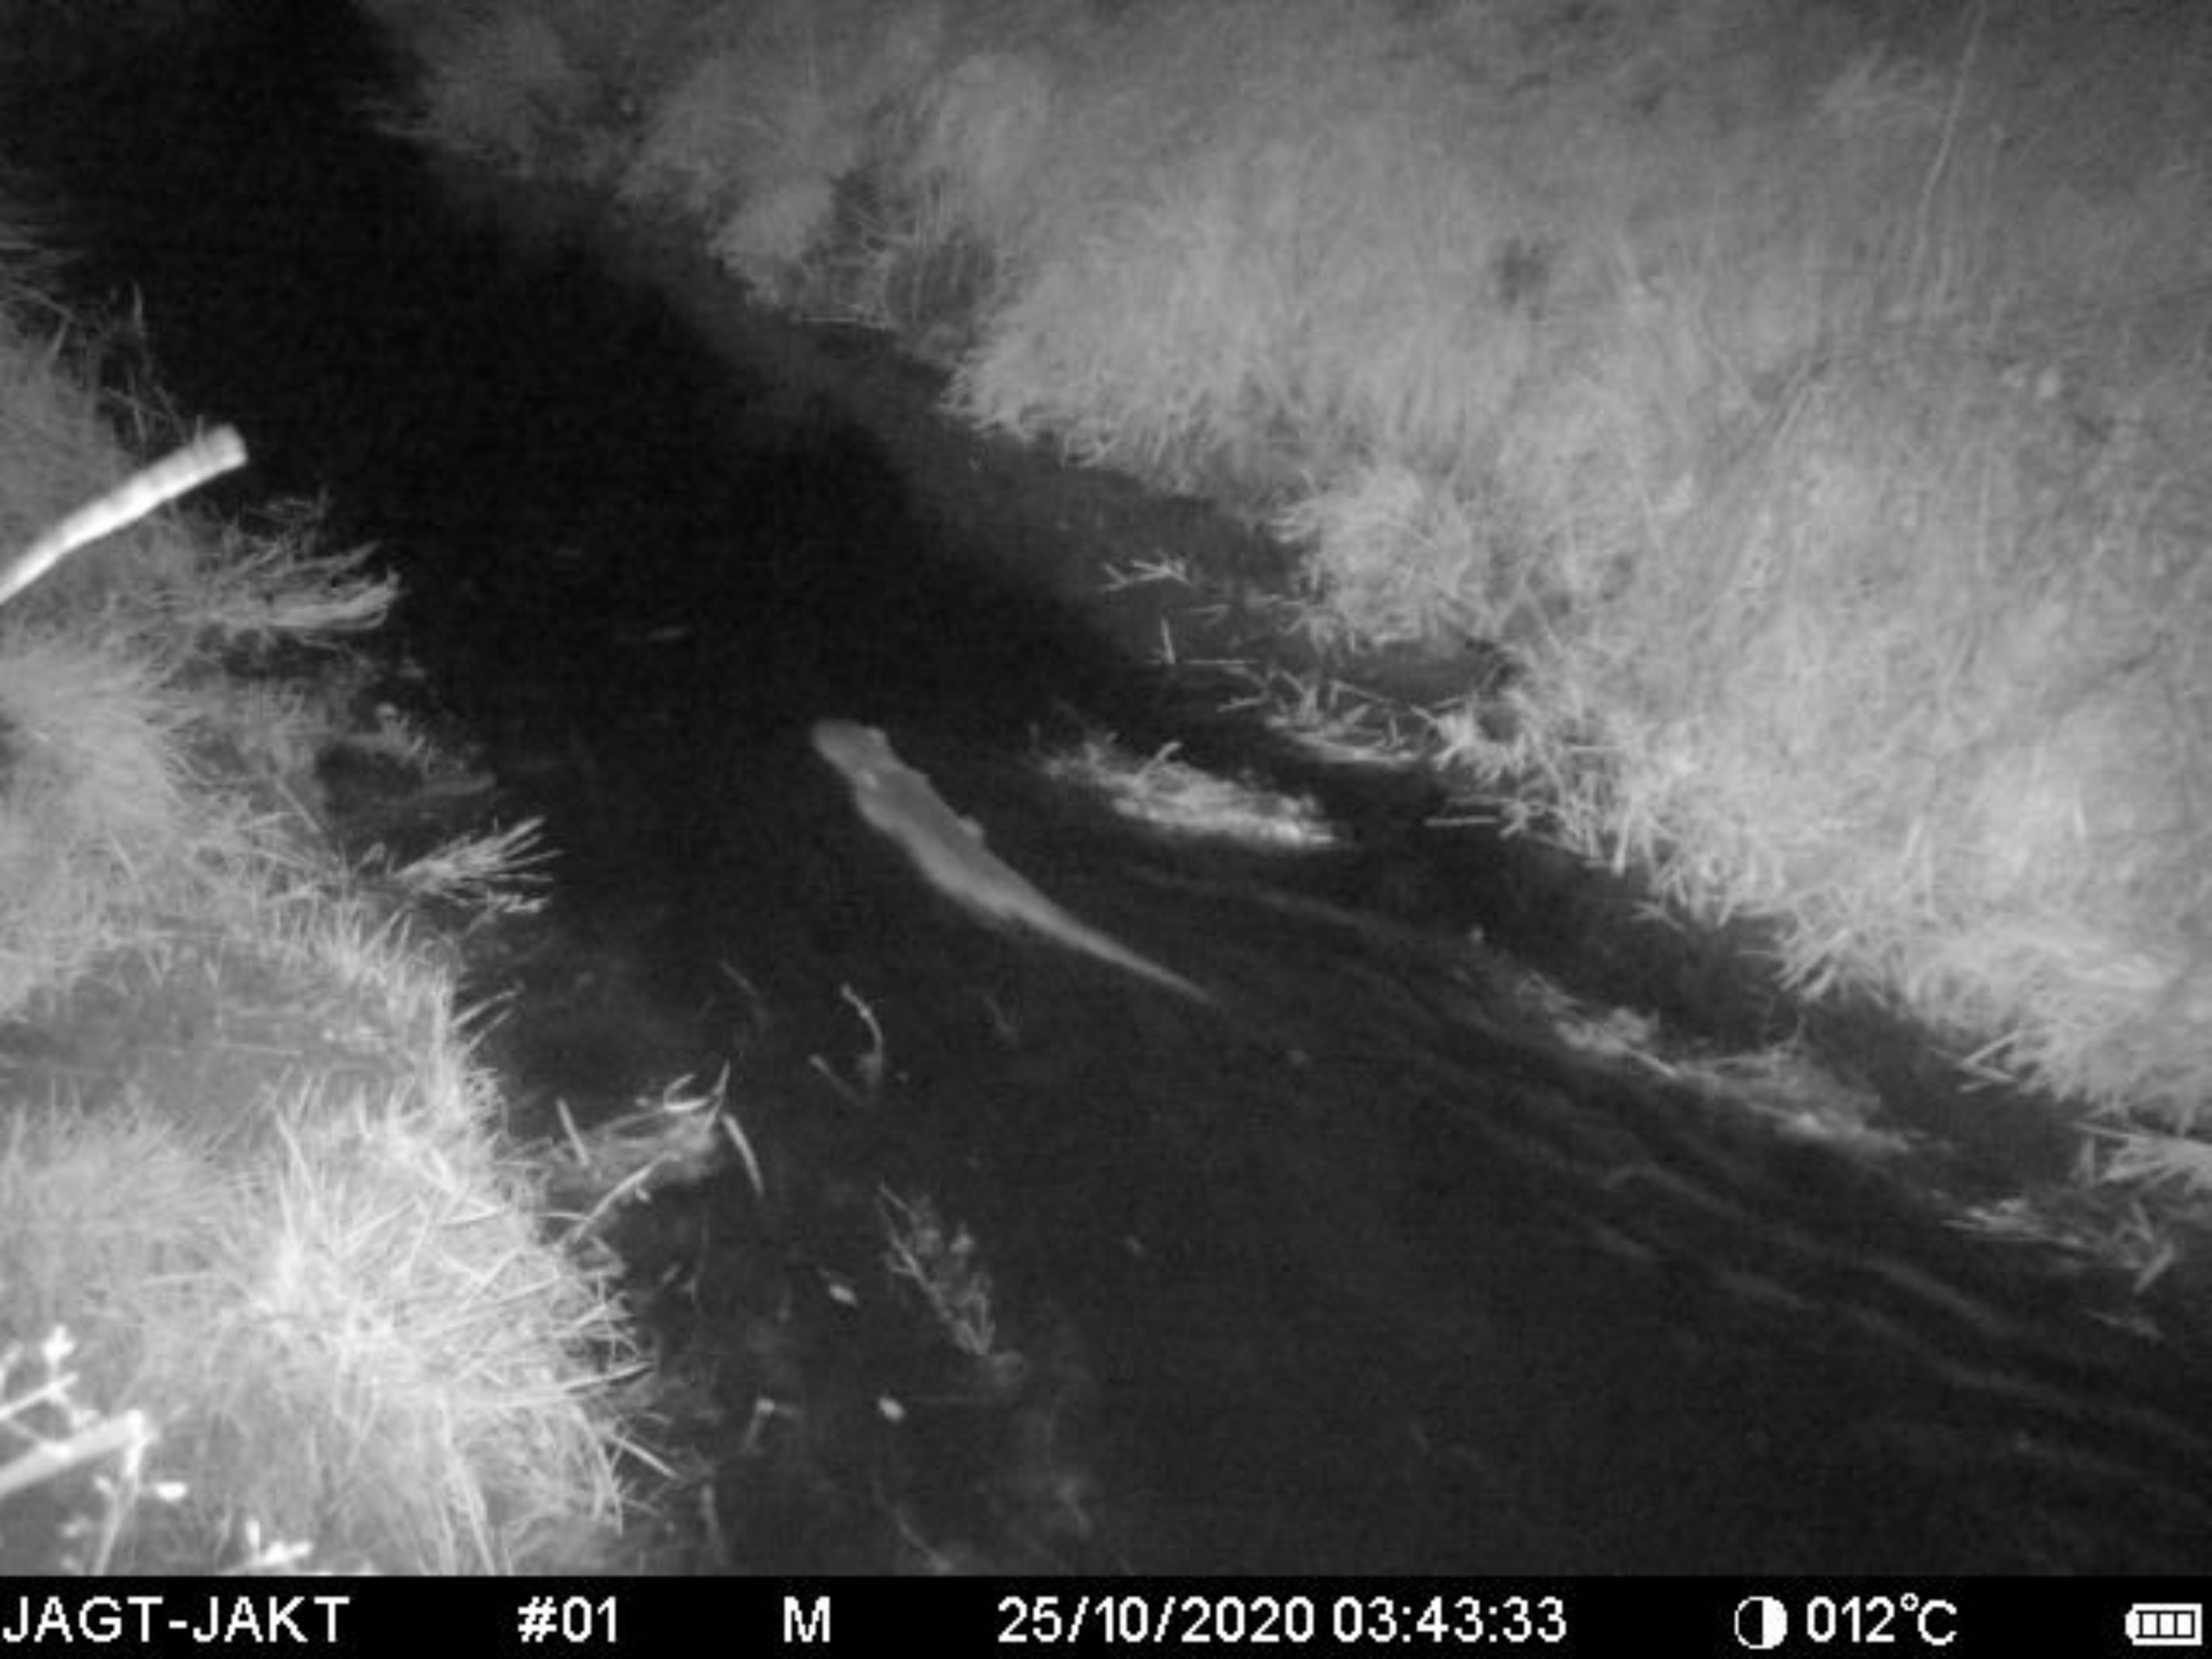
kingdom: Animalia
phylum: Chordata
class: Mammalia
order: Carnivora
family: Mustelidae
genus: Lutra
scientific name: Lutra lutra
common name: Odder
